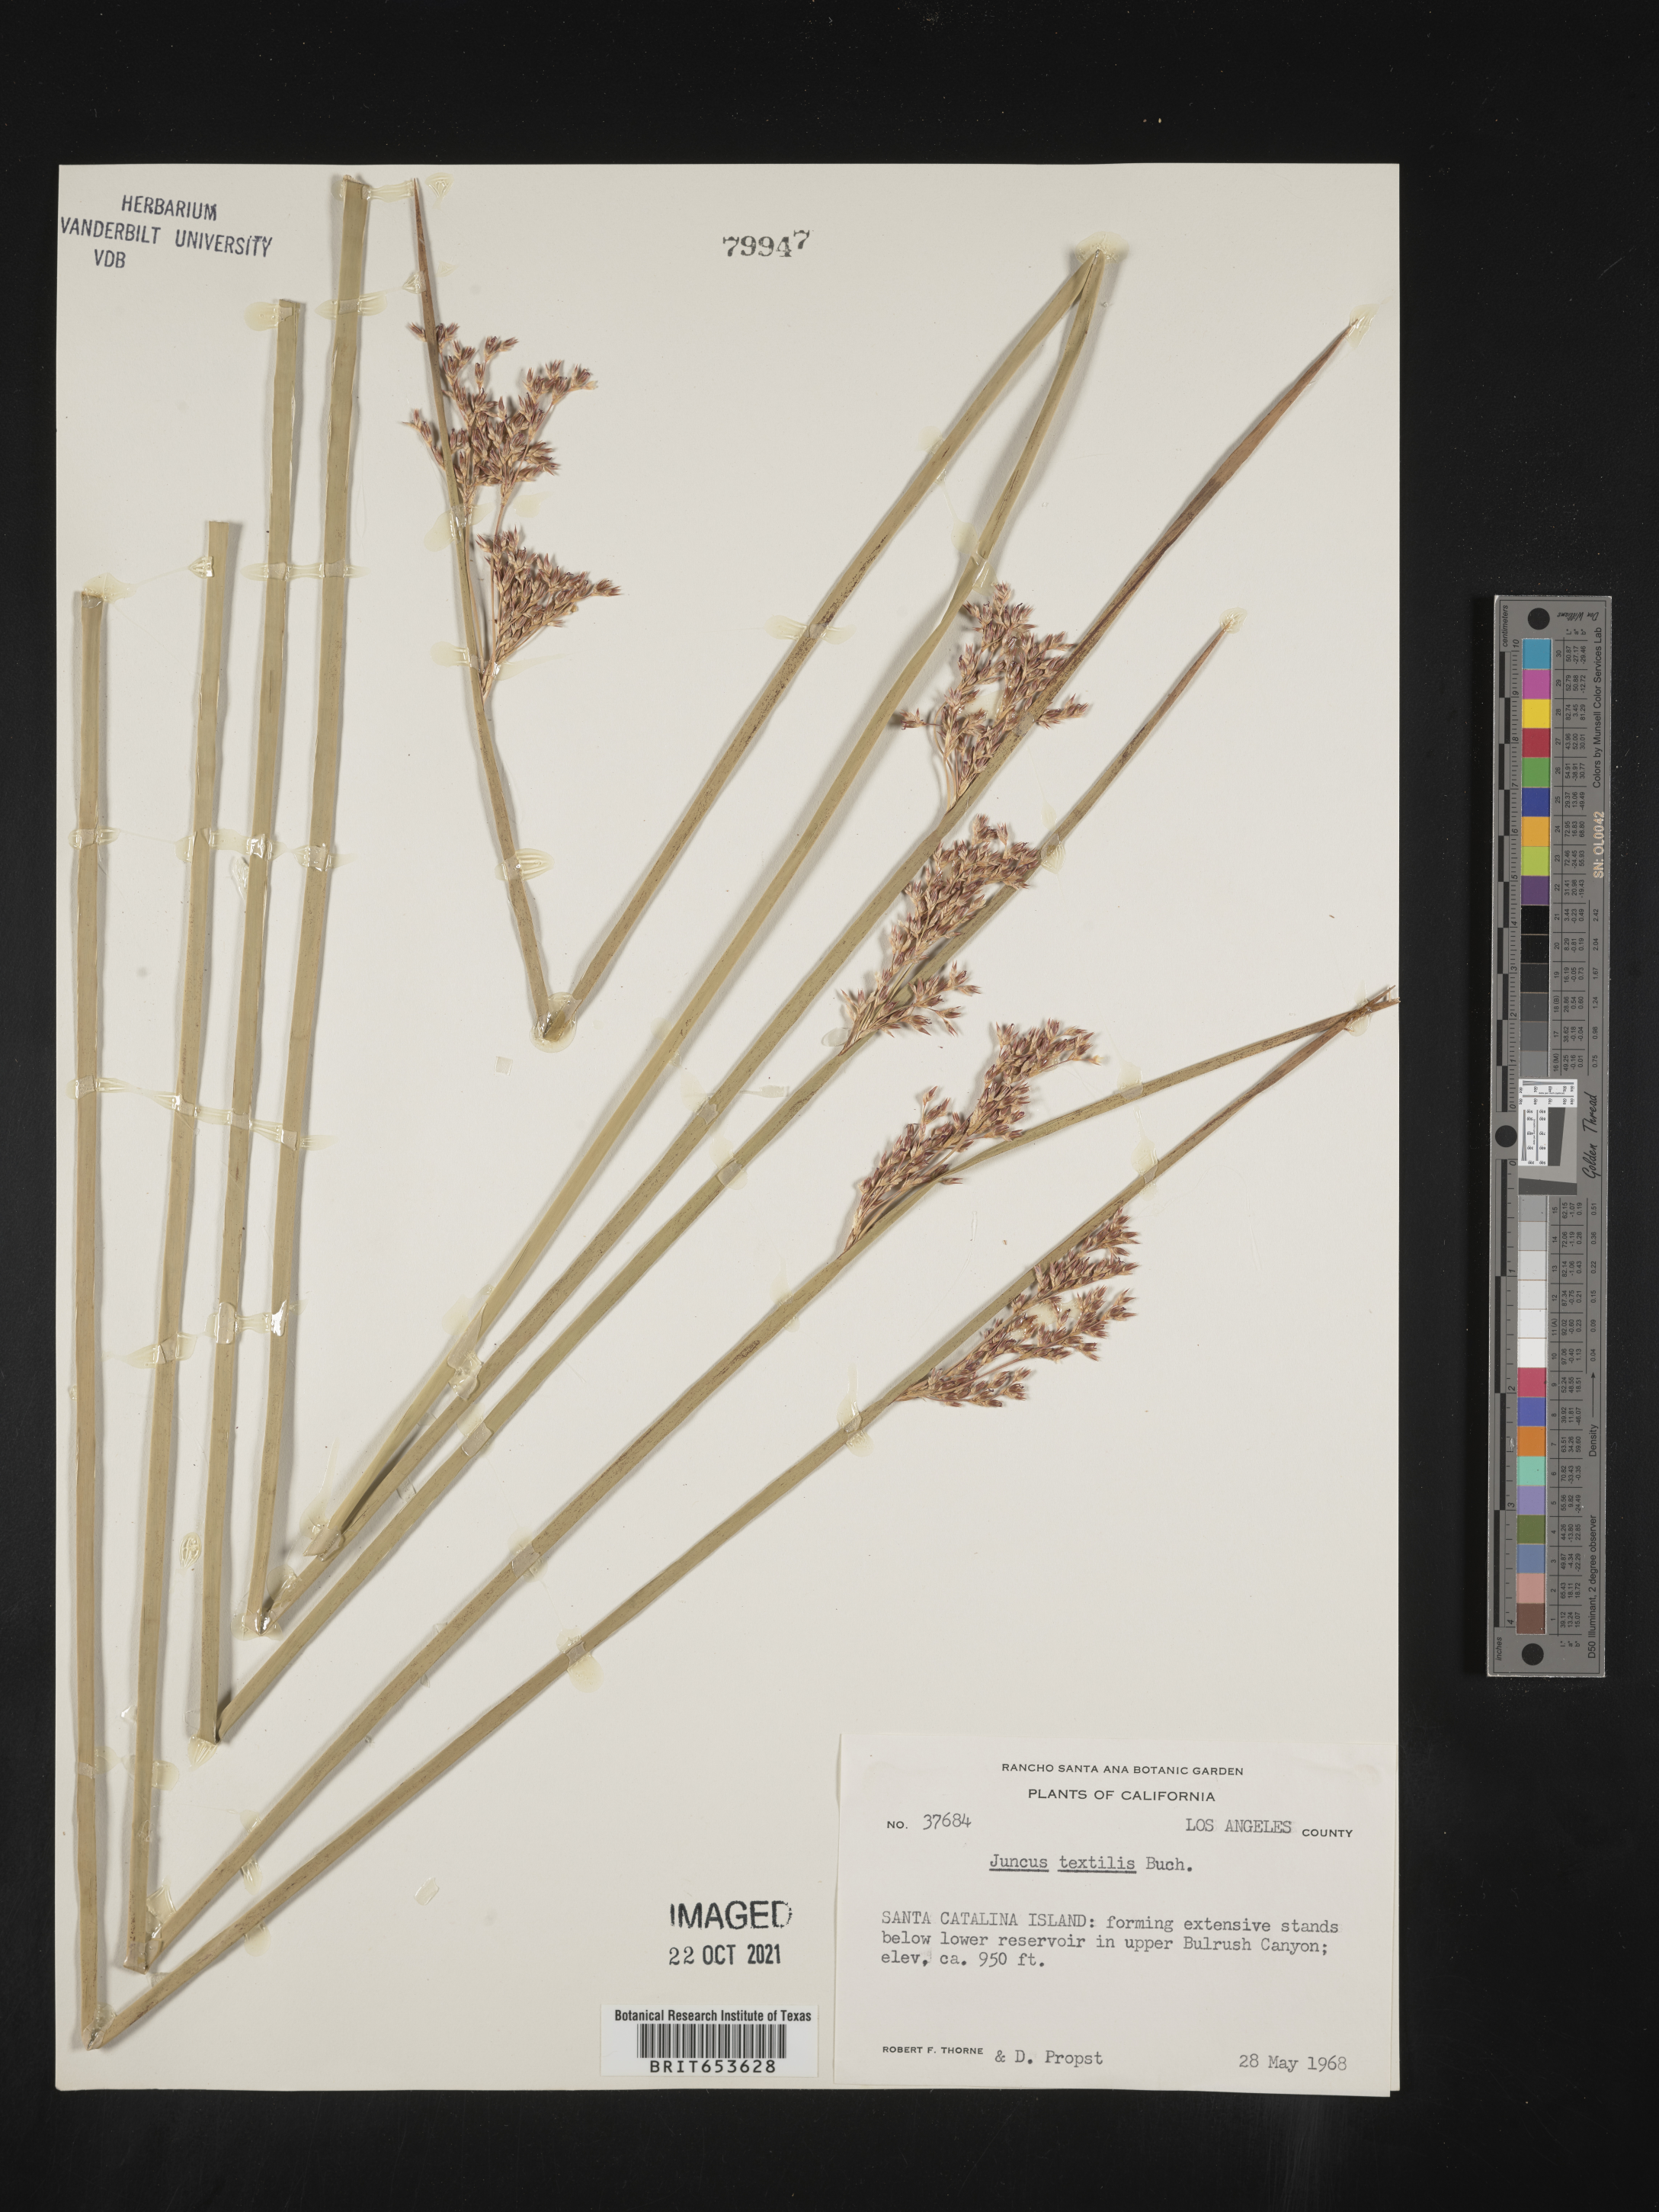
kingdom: Plantae
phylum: Tracheophyta
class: Liliopsida
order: Poales
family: Juncaceae
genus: Juncus
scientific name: Juncus textilis
